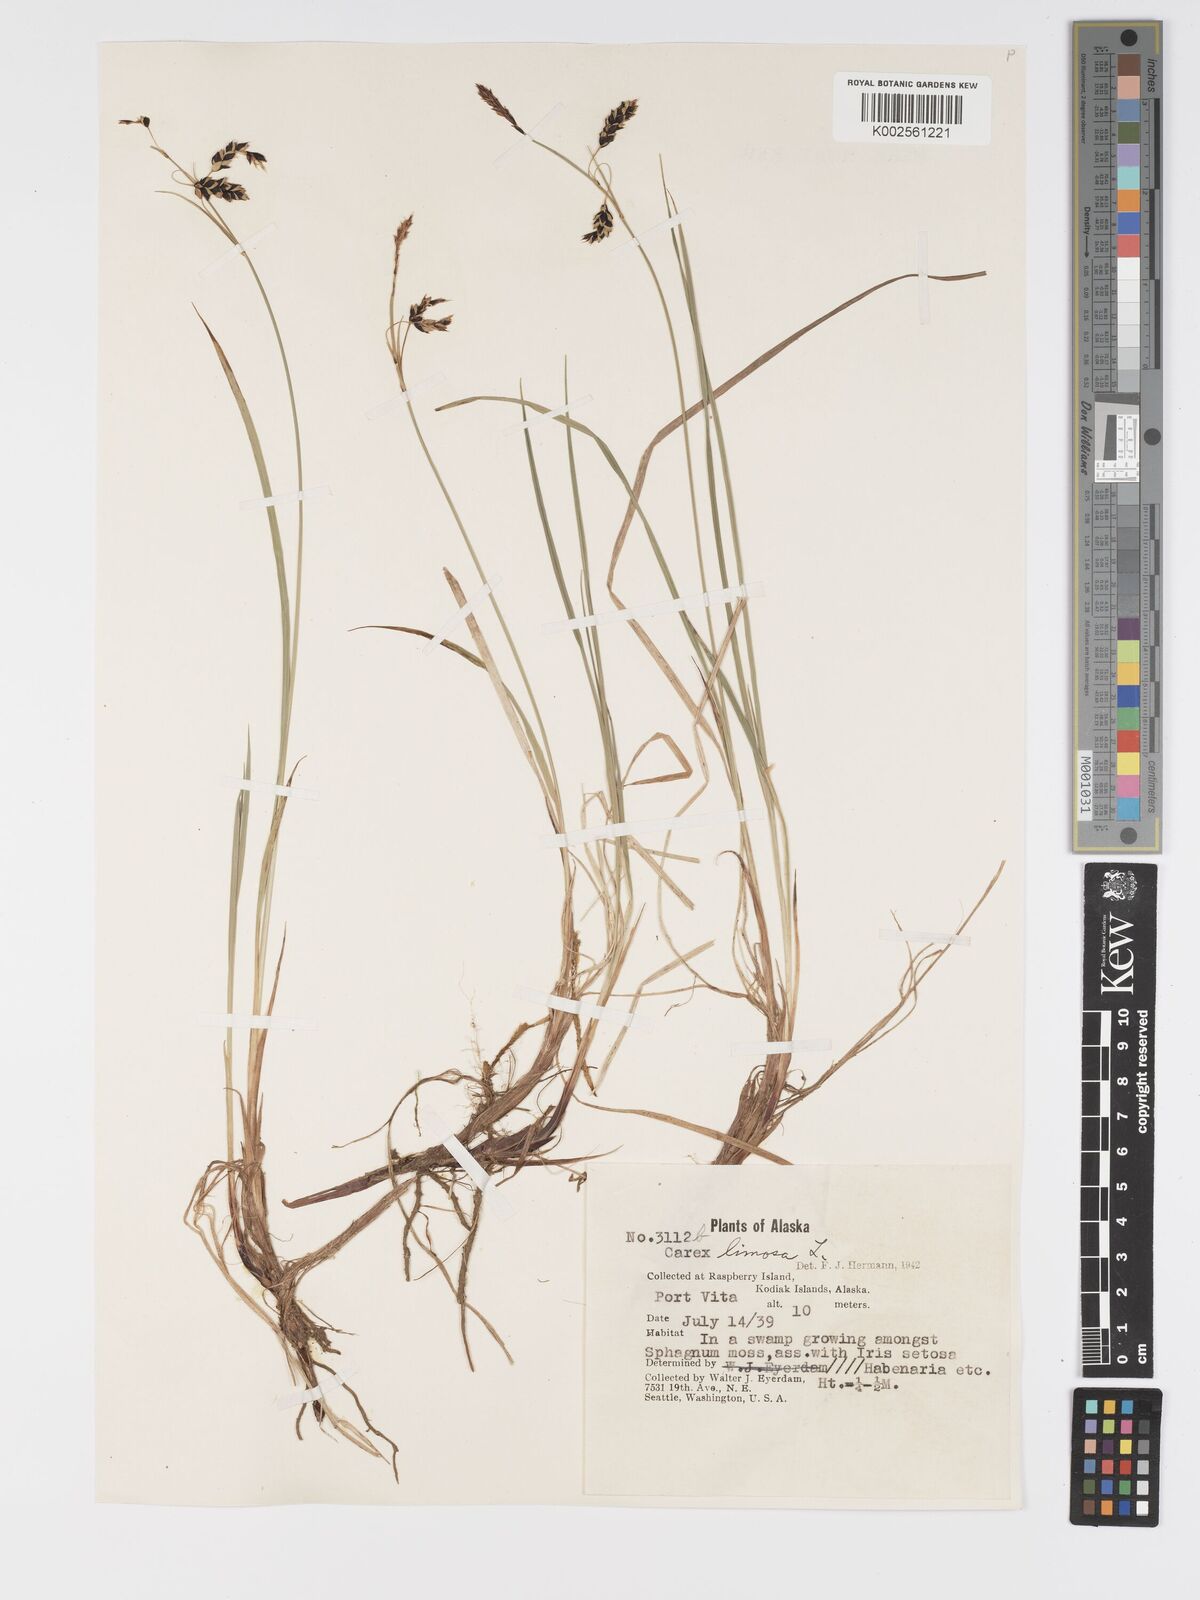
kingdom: Plantae
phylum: Tracheophyta
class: Liliopsida
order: Poales
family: Cyperaceae
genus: Carex
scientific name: Carex limosa
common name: Bog sedge
